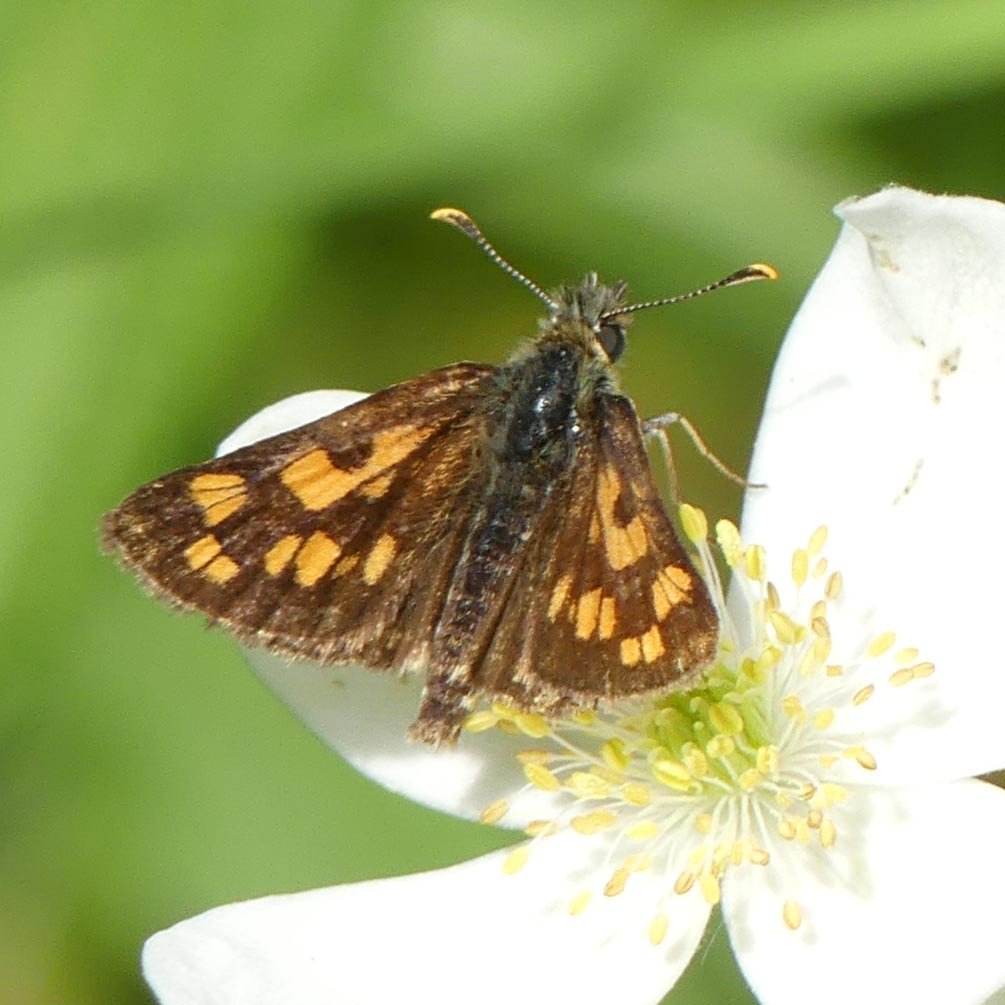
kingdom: Animalia
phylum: Arthropoda
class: Insecta
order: Lepidoptera
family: Hesperiidae
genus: Carterocephalus
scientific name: Carterocephalus palaemon
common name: Chequered Skipper
